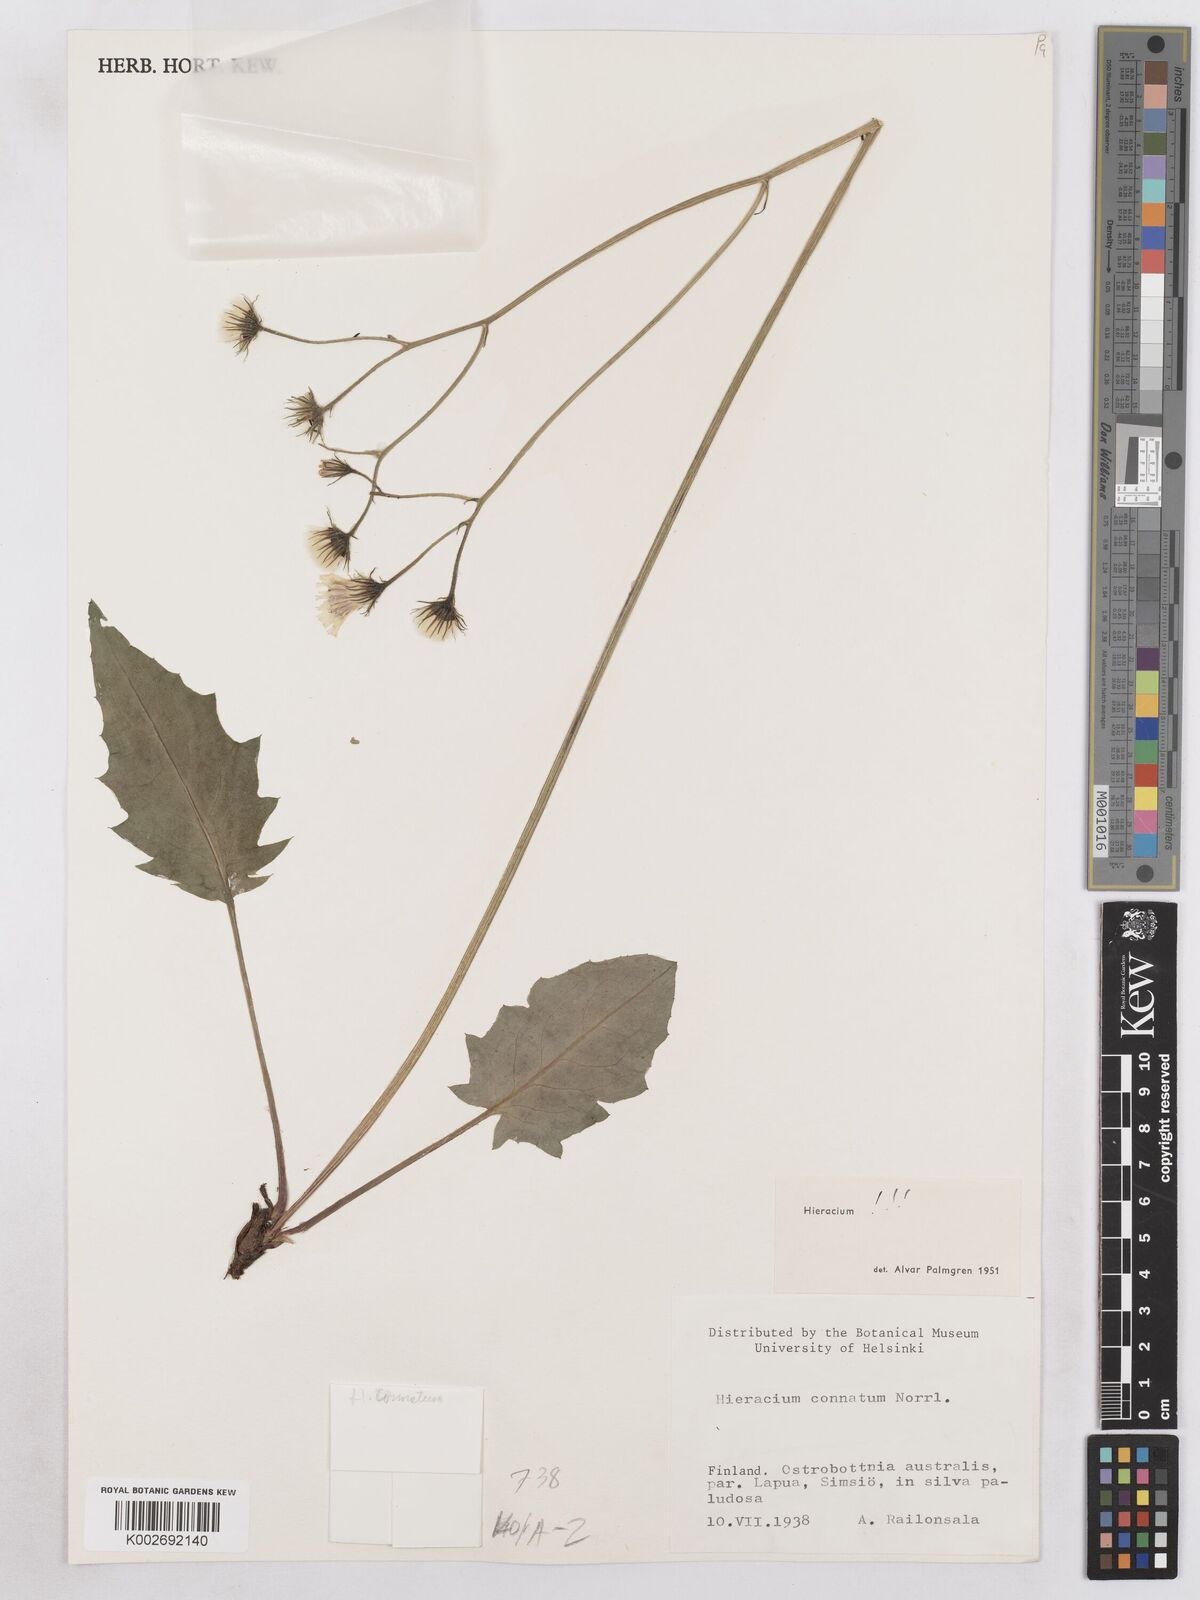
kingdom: Plantae
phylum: Tracheophyta
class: Magnoliopsida
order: Asterales
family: Asteraceae
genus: Hieracium
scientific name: Hieracium fuscocinereum
